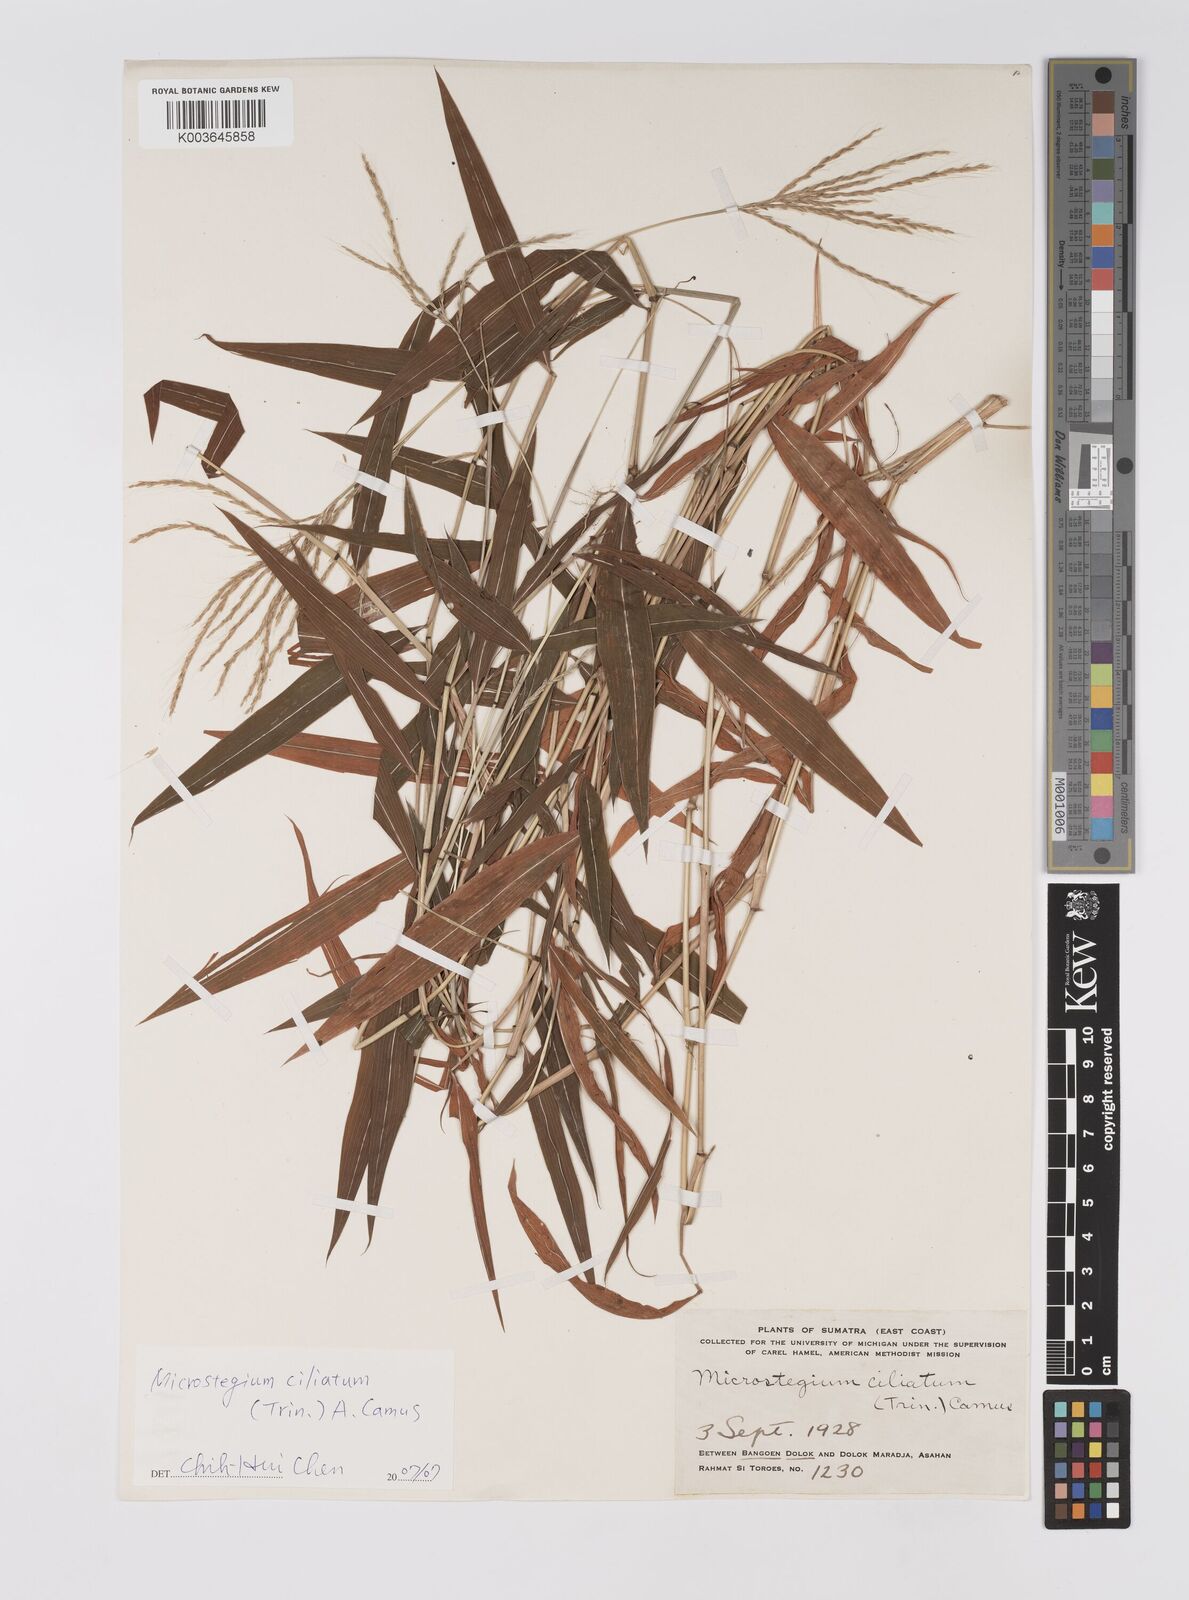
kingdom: Plantae
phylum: Tracheophyta
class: Liliopsida
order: Poales
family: Poaceae
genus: Microstegium
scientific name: Microstegium fasciculatum
